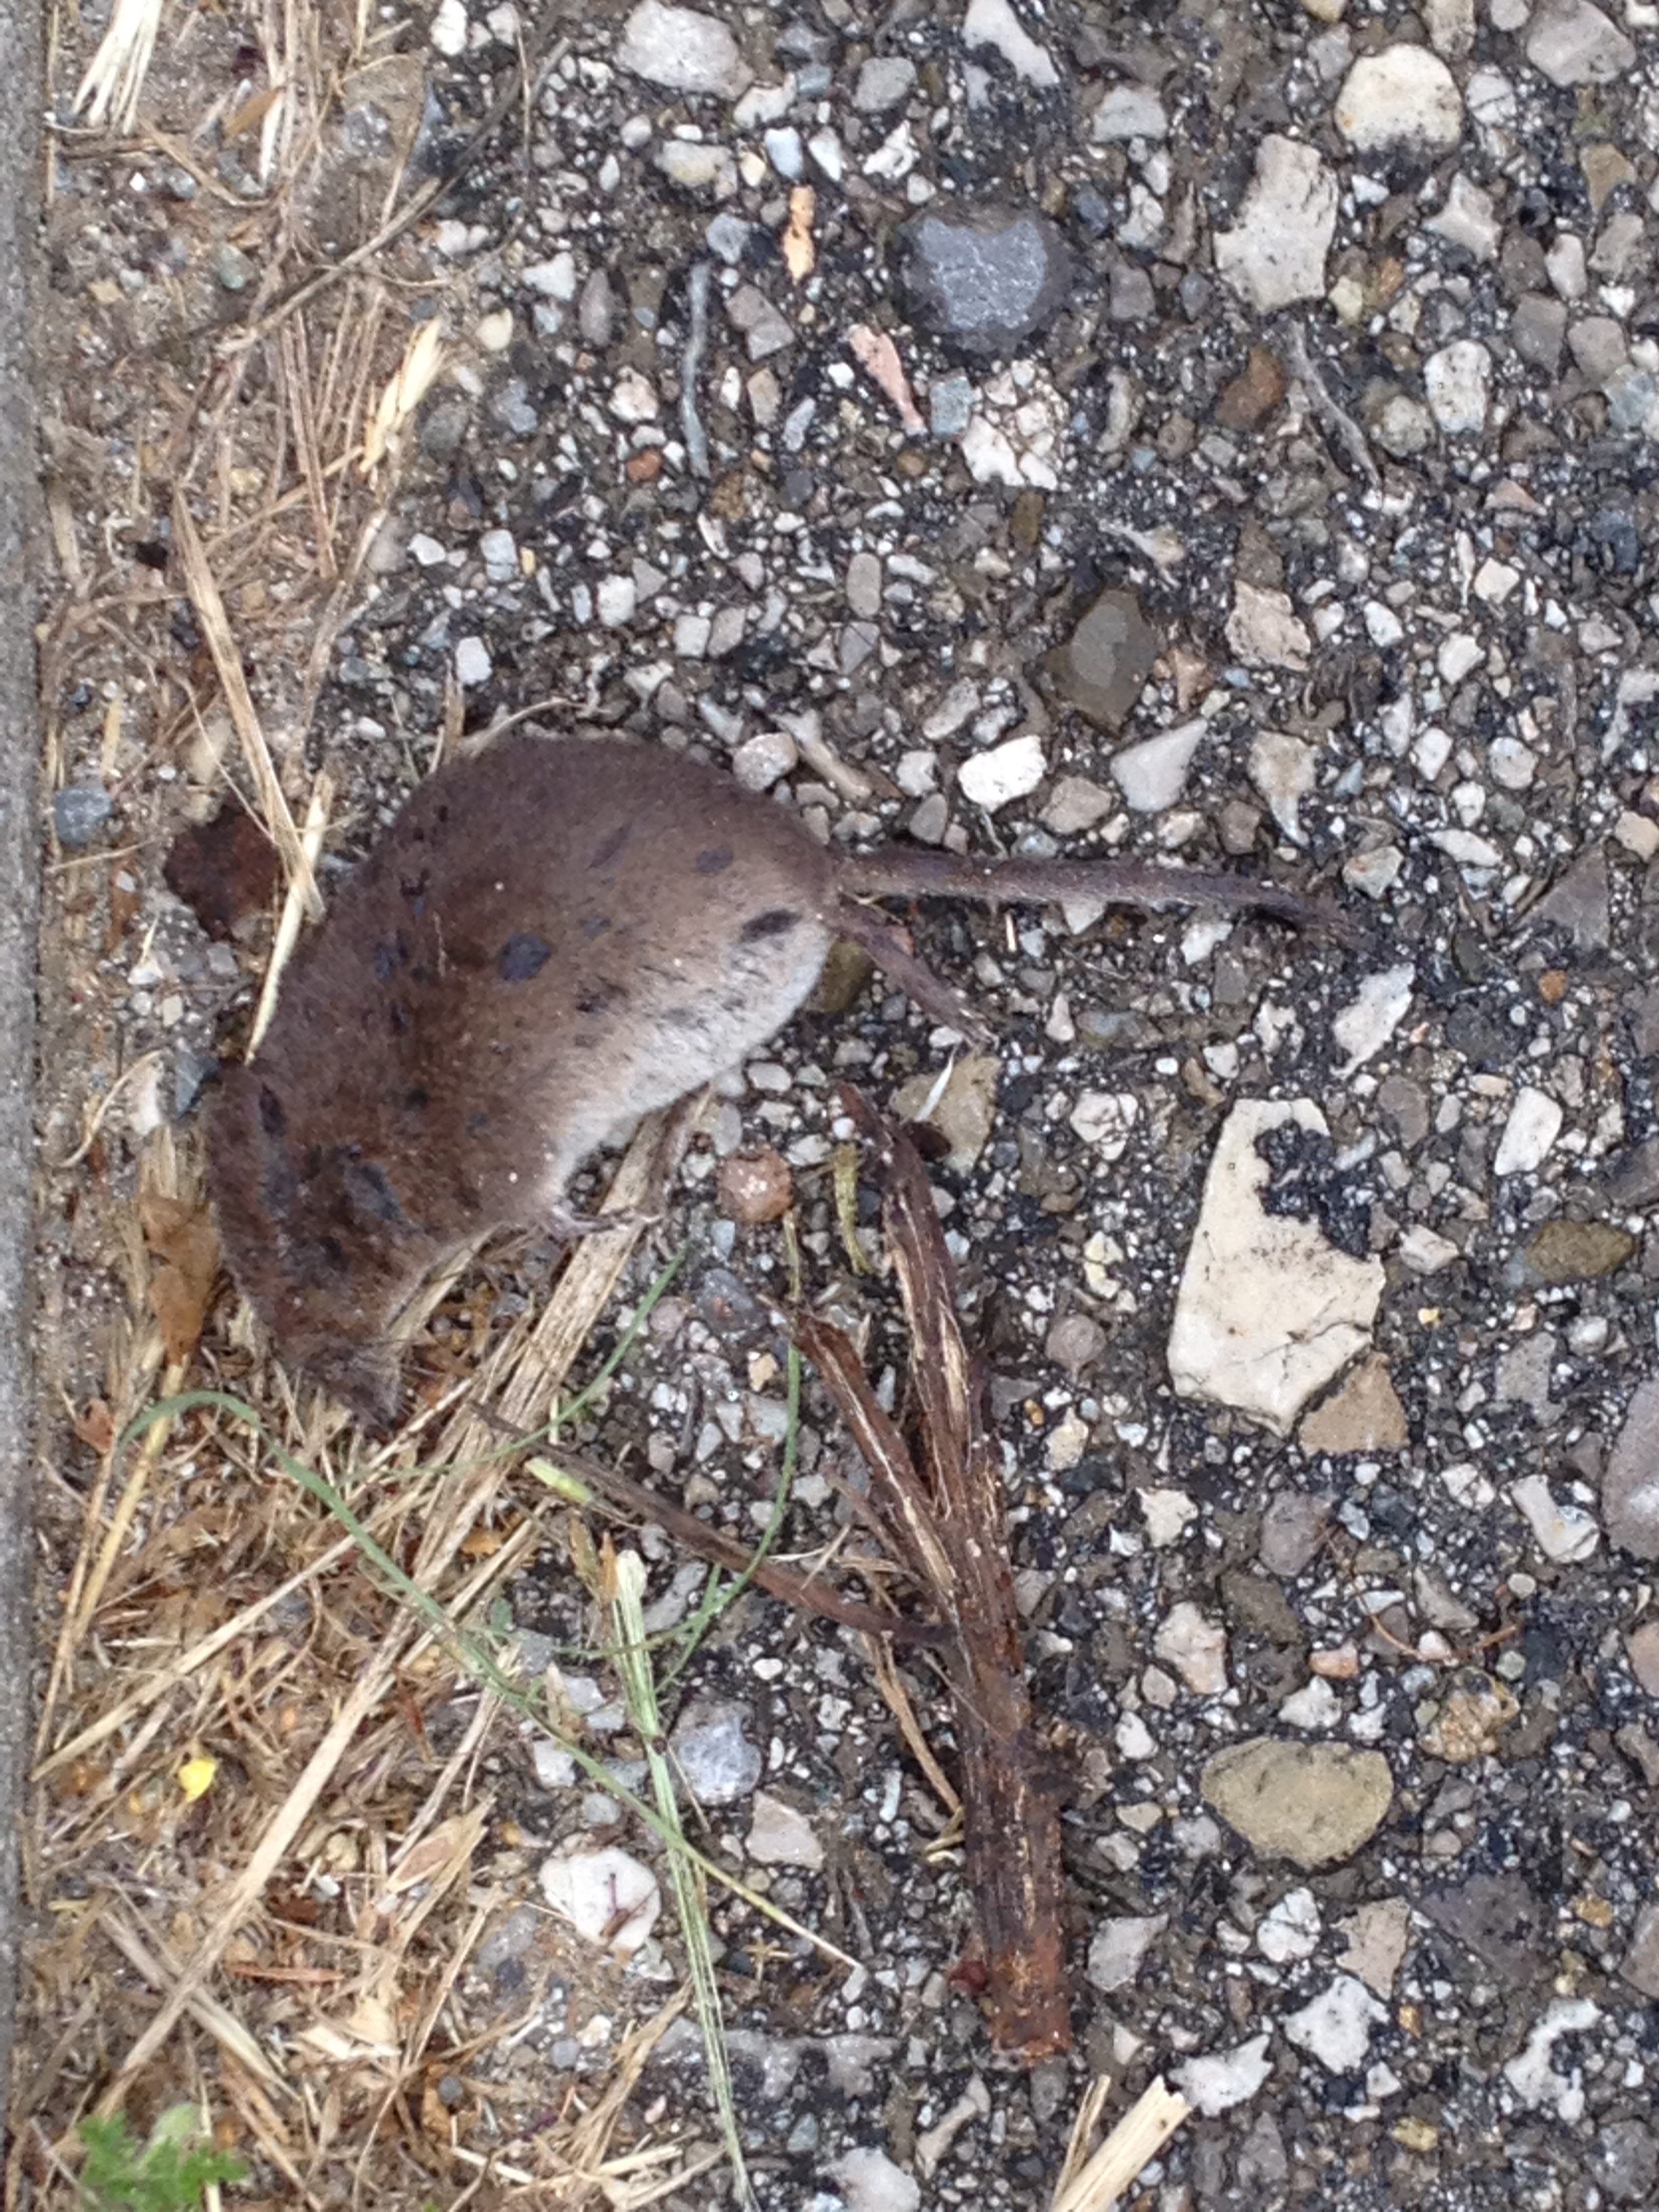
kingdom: Animalia
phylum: Chordata
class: Mammalia
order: Soricomorpha
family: Soricidae
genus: Sorex
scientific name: Sorex araneus
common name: Common shrew
